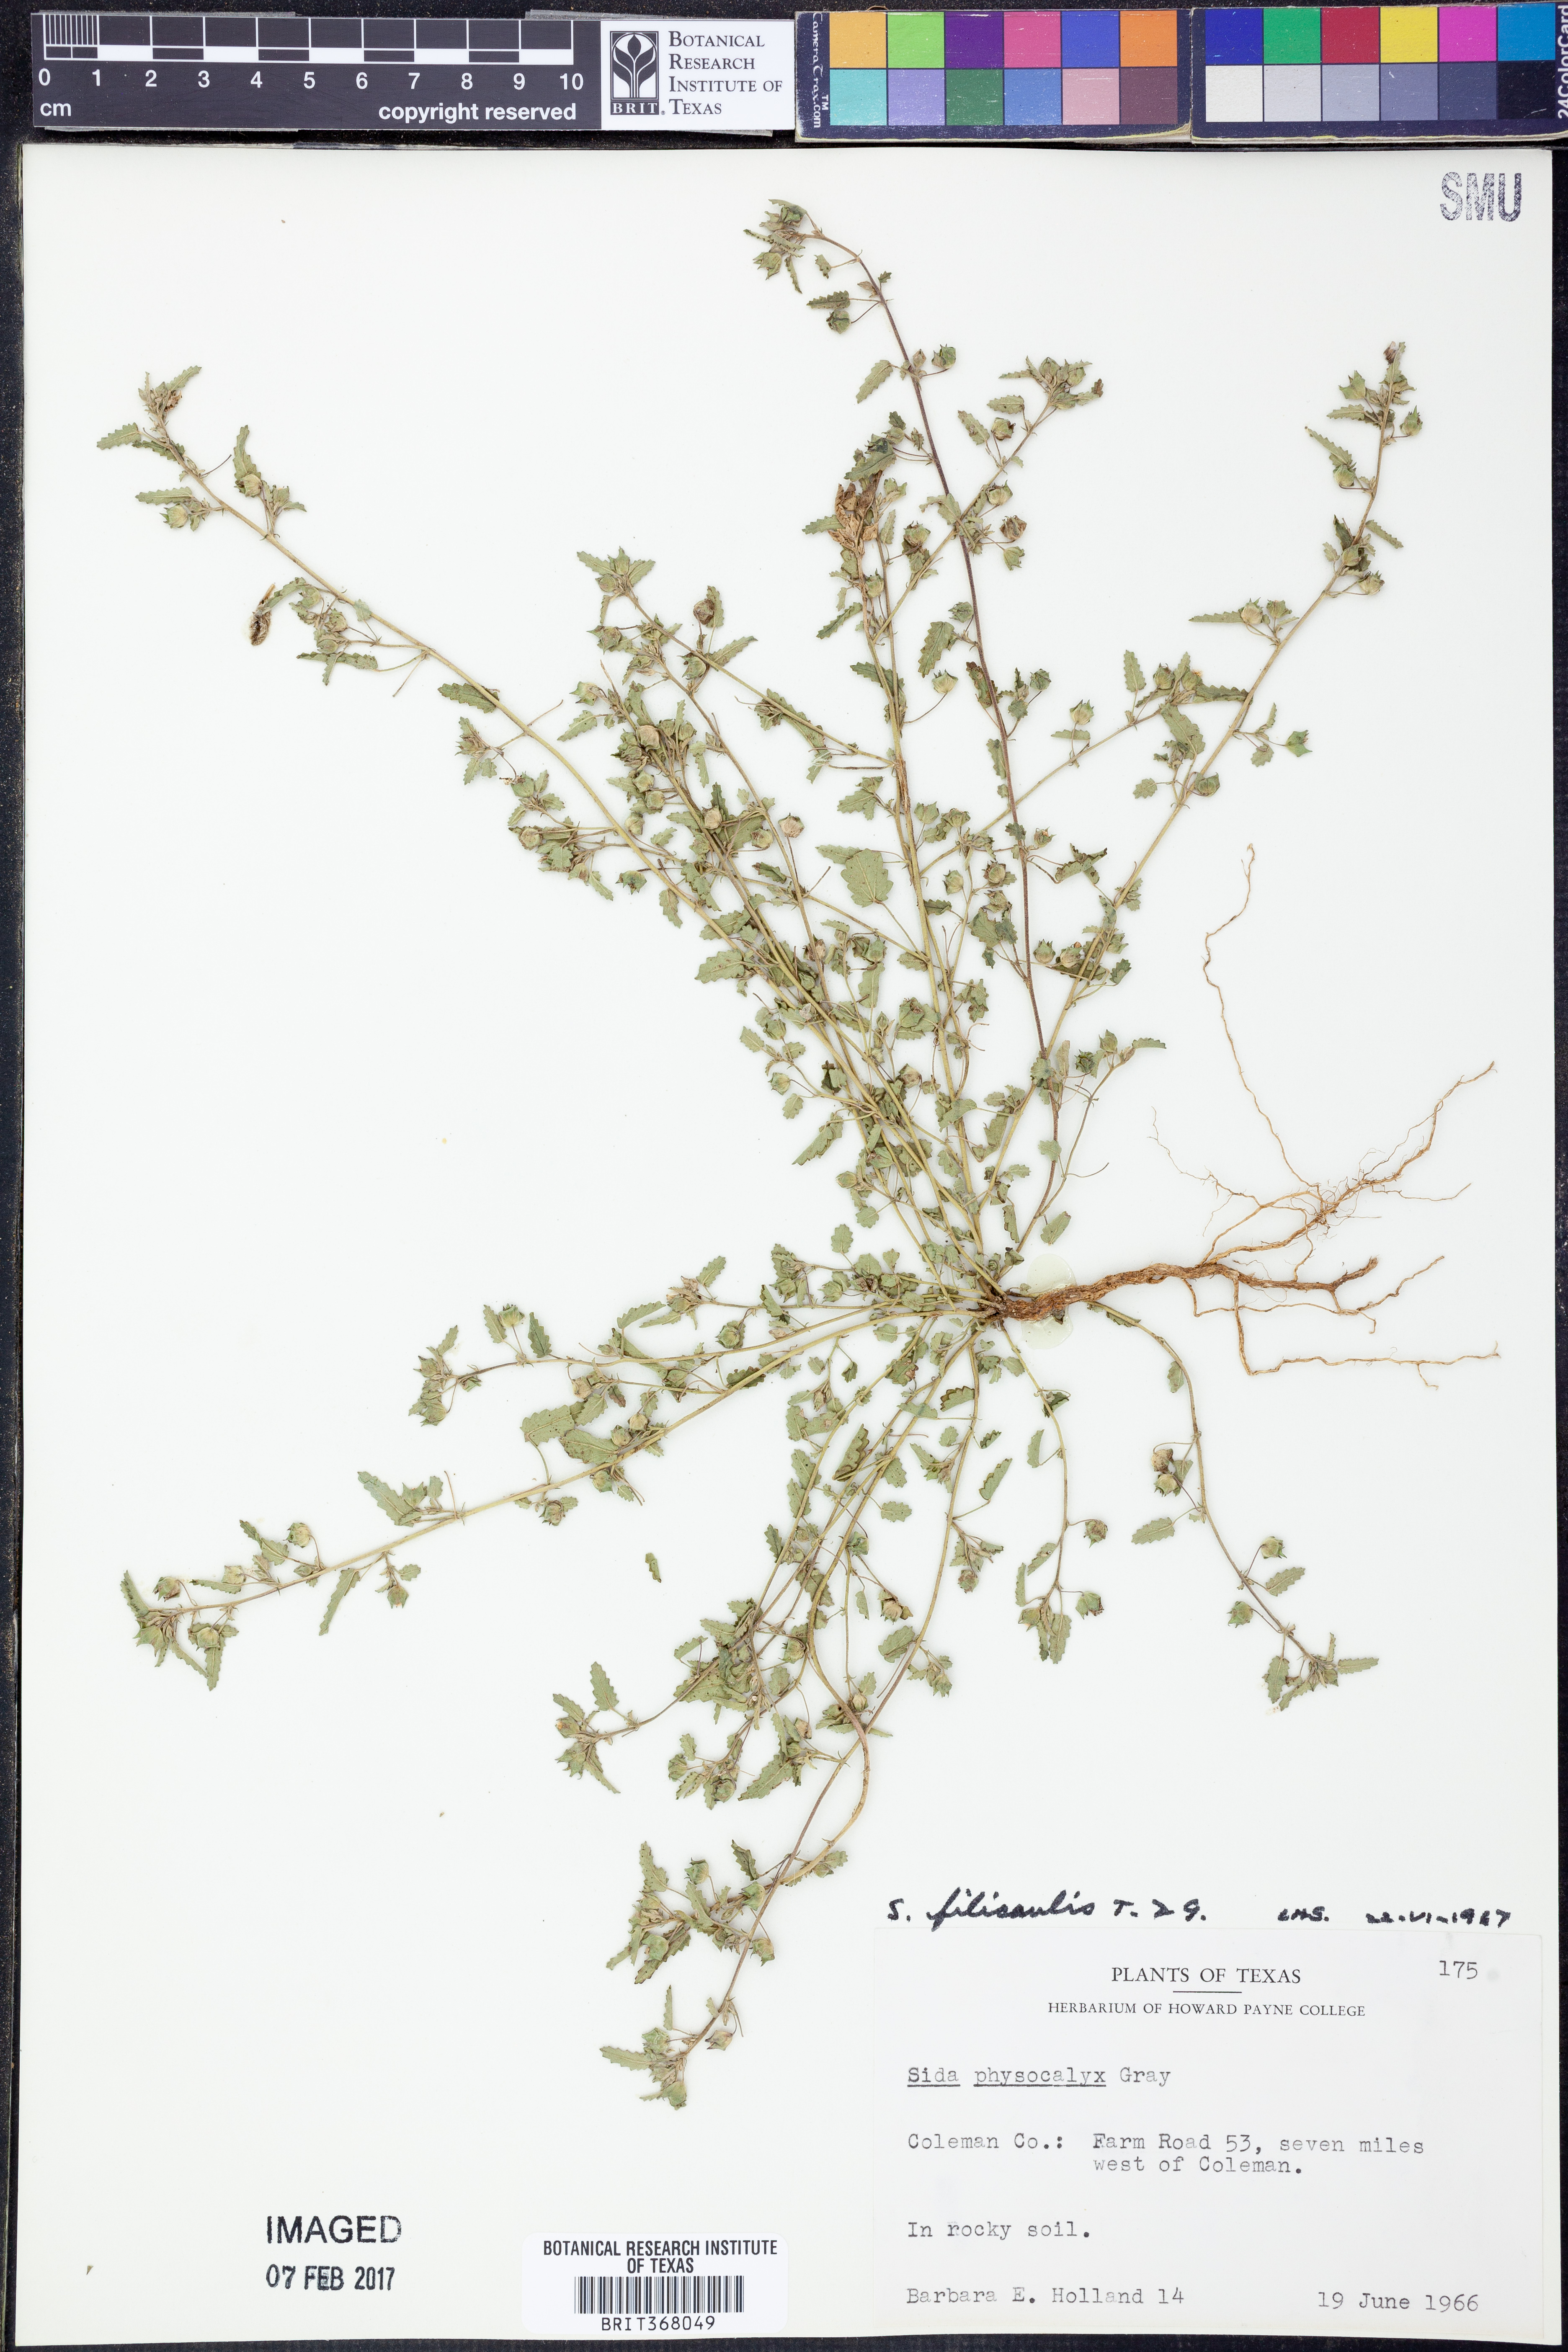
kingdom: Plantae
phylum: Tracheophyta
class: Magnoliopsida
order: Malvales
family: Malvaceae
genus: Sida
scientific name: Sida abutilifolia
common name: Spreading fanpetals
